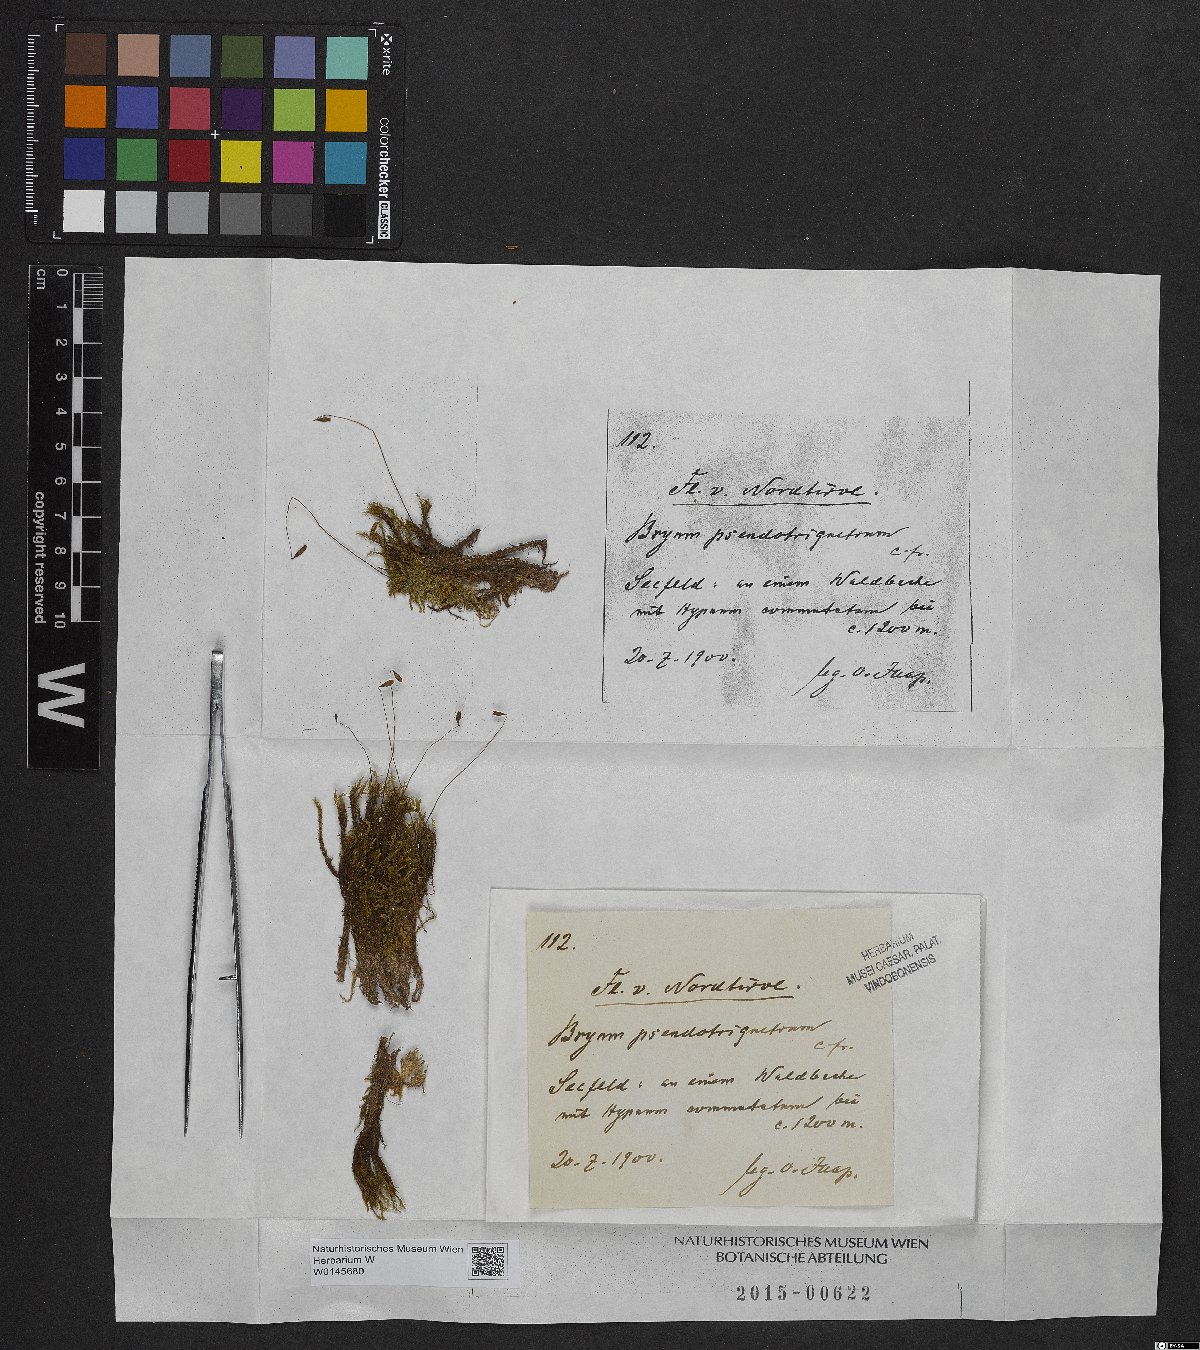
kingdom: Plantae
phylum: Bryophyta
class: Bryopsida
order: Bryales
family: Bryaceae
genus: Ptychostomum
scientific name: Ptychostomum pseudotriquetrum
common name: Long-leaved thread moss
